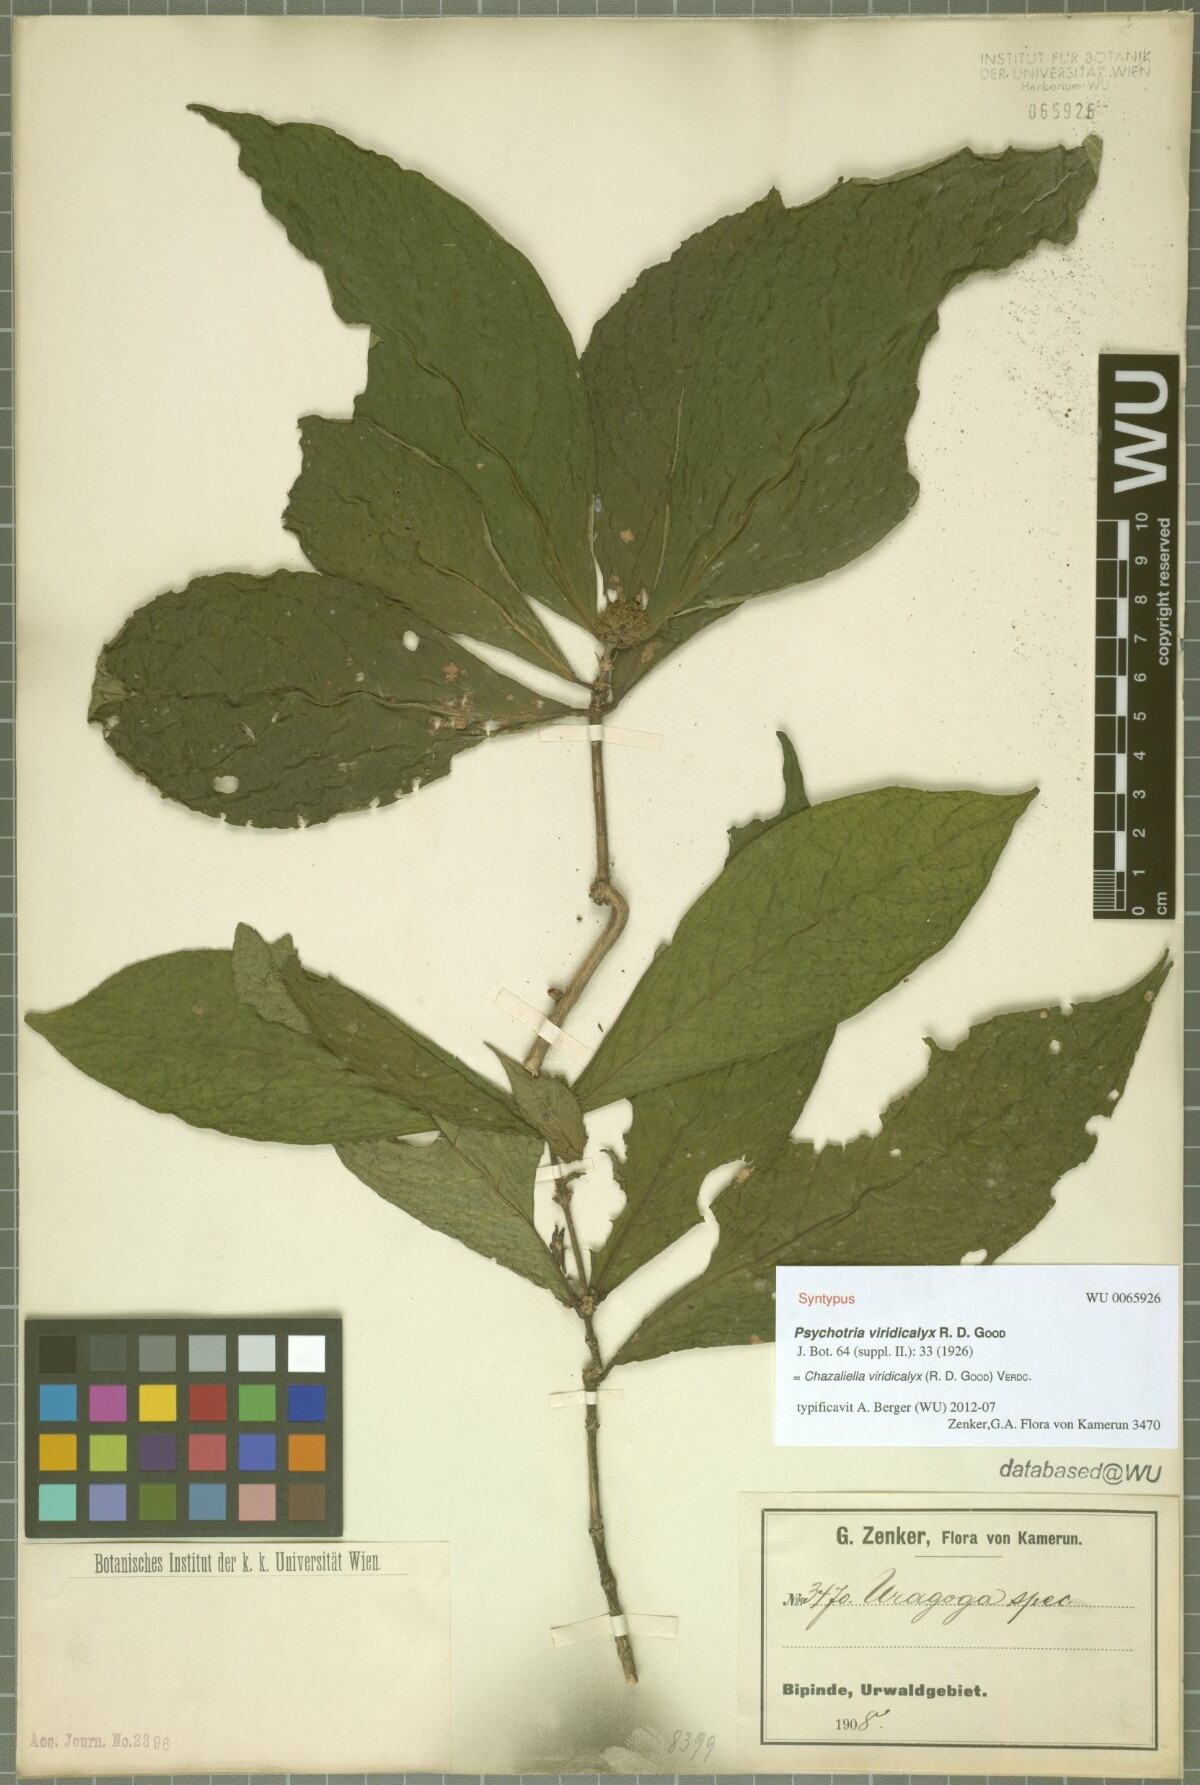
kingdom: Plantae
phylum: Tracheophyta
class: Magnoliopsida
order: Gentianales
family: Rubiaceae
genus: Eumachia
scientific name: Eumachia viridicalyx
